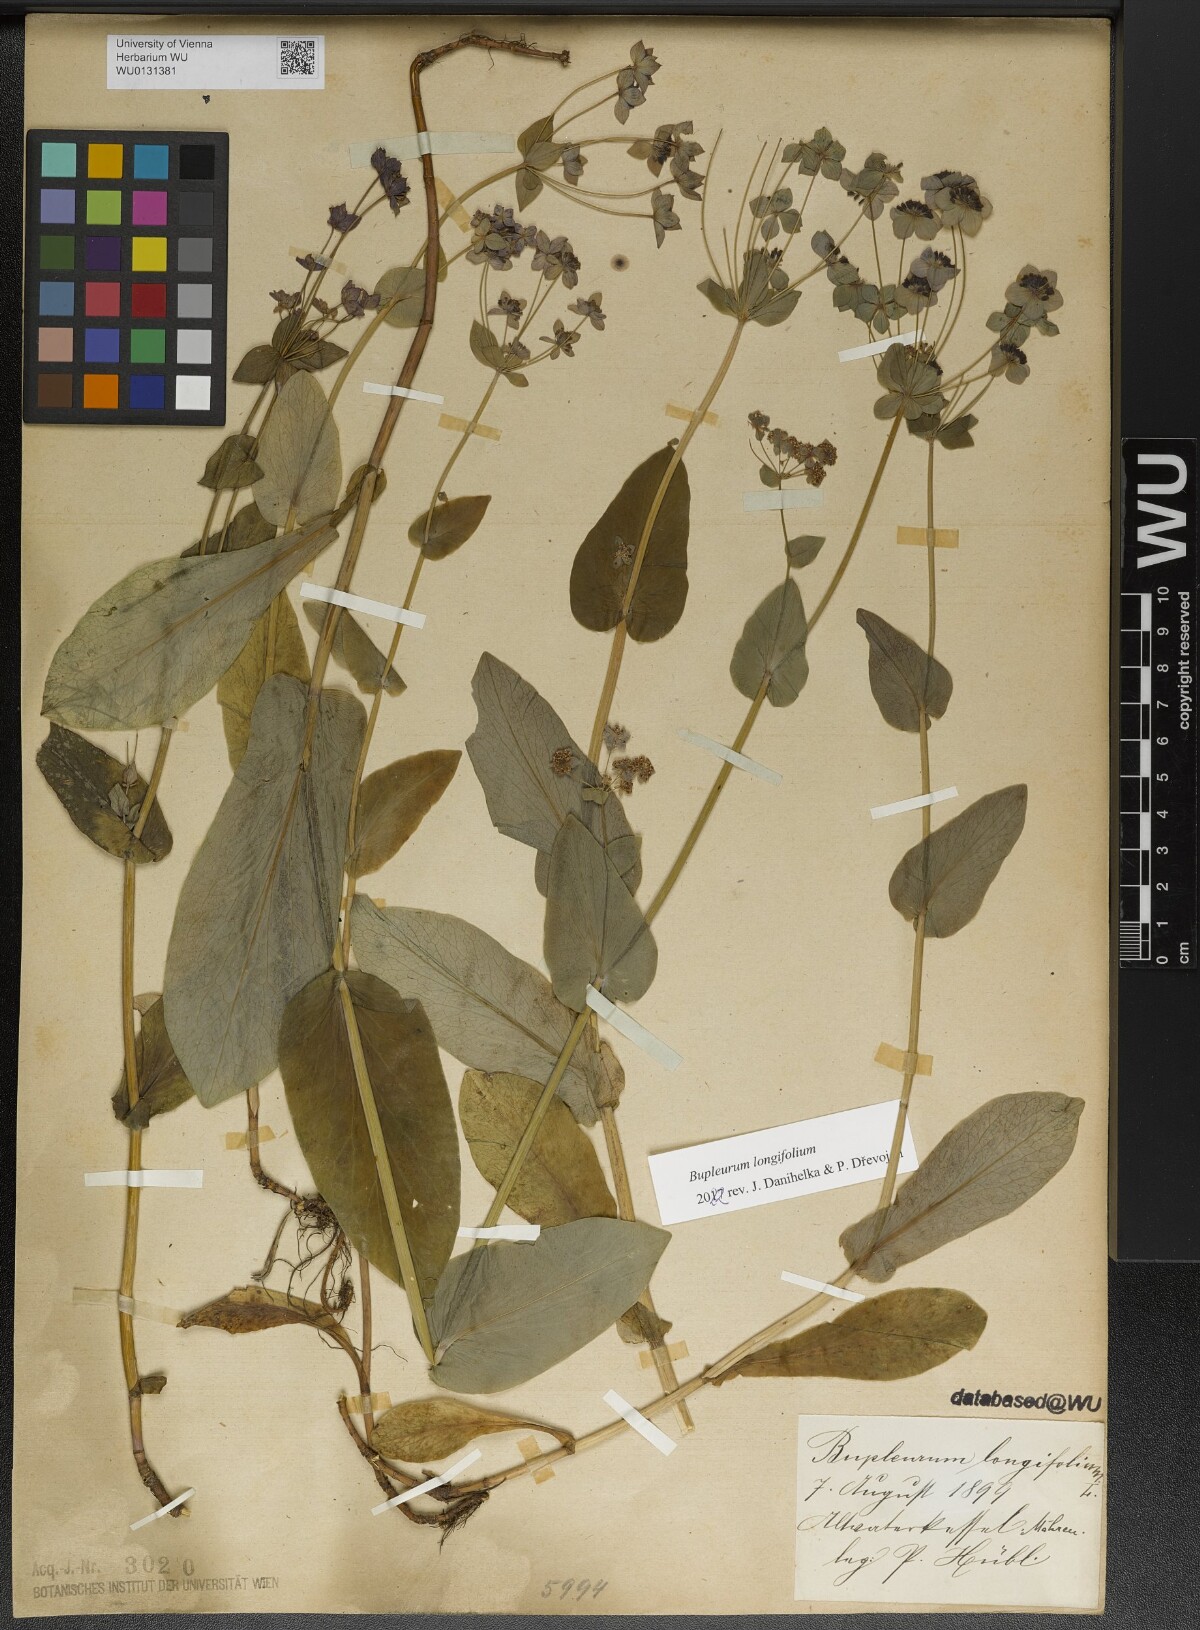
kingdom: Plantae
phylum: Tracheophyta
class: Magnoliopsida
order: Apiales
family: Apiaceae
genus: Bupleurum
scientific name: Bupleurum longifolium
